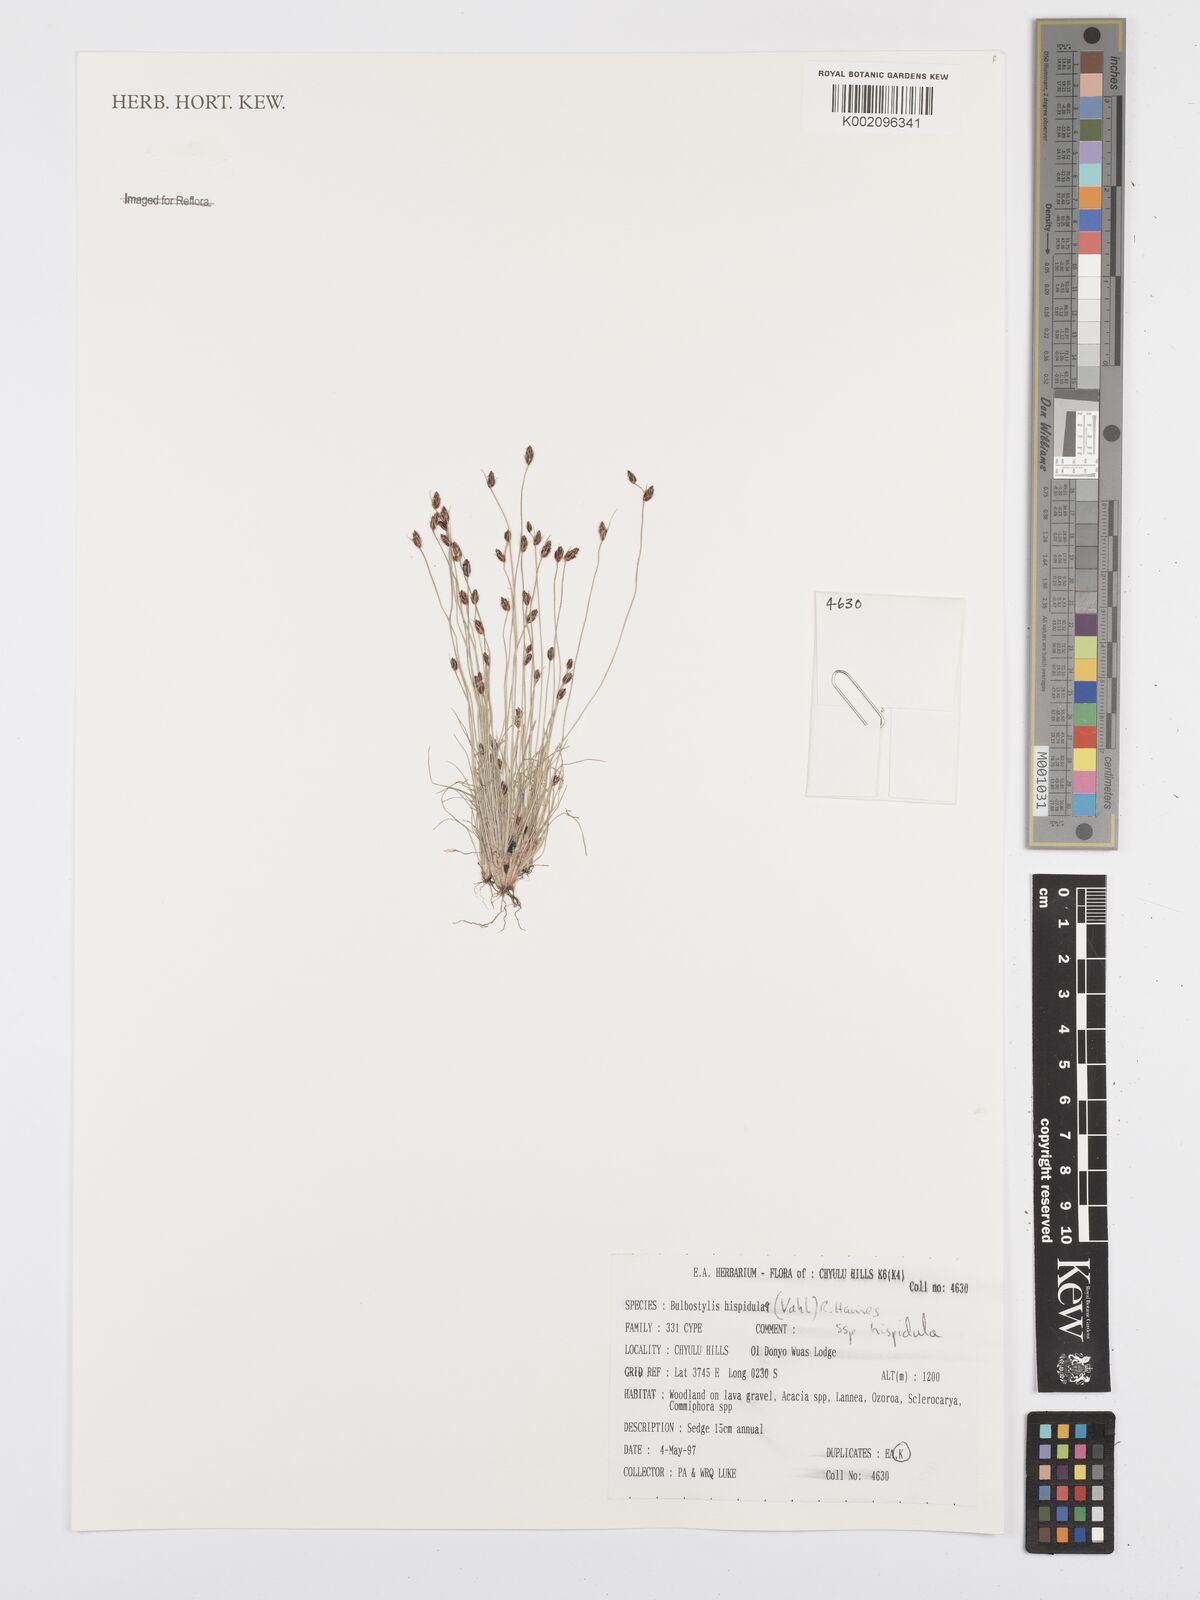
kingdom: Plantae
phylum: Tracheophyta
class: Liliopsida
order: Poales
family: Cyperaceae
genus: Bulbostylis
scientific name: Bulbostylis hispidula
